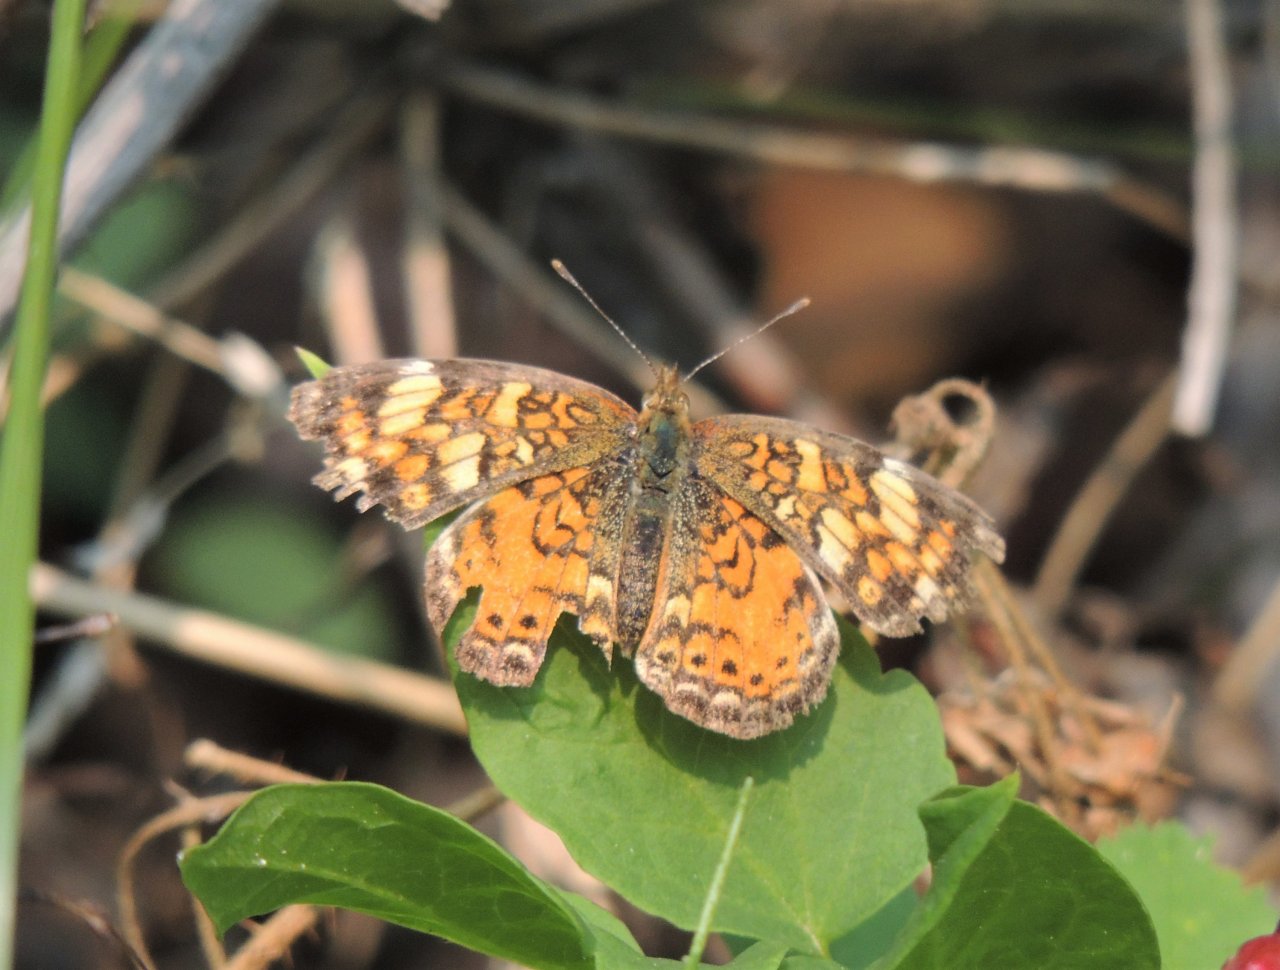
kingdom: Animalia
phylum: Arthropoda
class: Insecta
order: Lepidoptera
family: Nymphalidae
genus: Eresia
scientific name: Eresia aveyrona
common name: Mylitta Crescent
